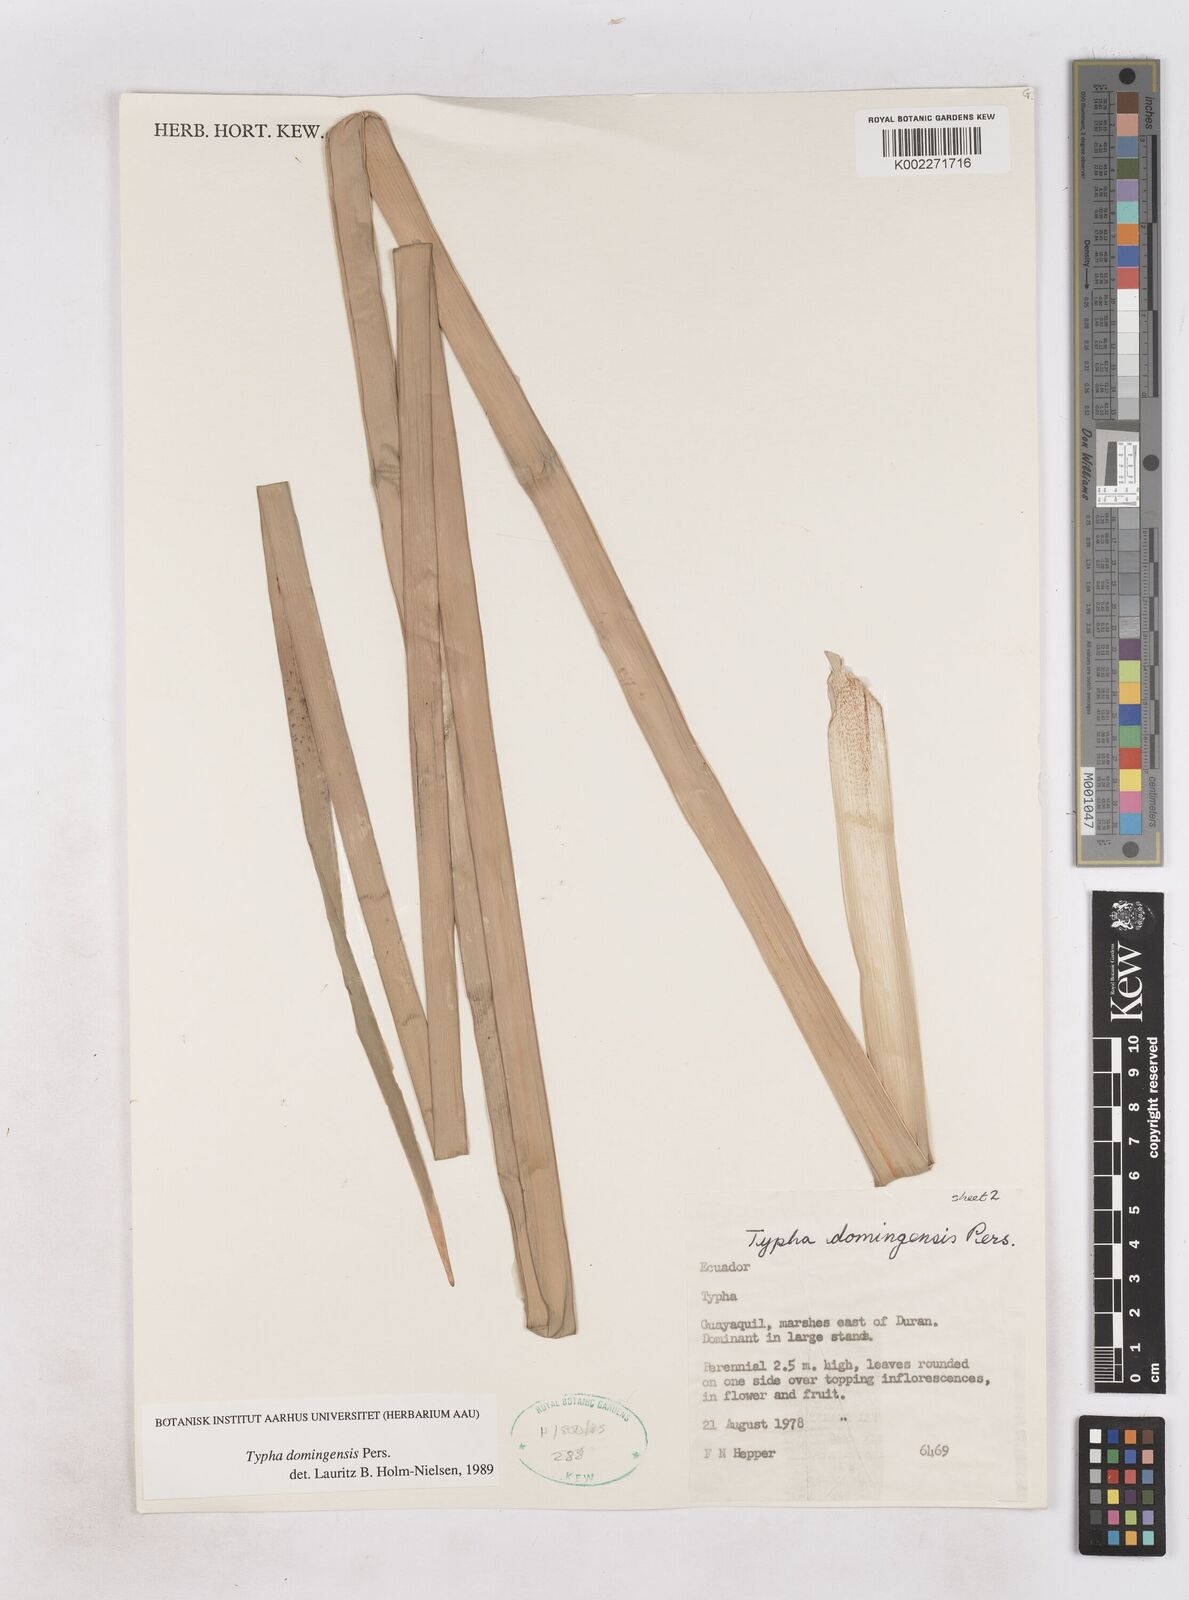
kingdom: Plantae
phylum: Tracheophyta
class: Liliopsida
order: Poales
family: Typhaceae
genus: Typha
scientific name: Typha domingensis
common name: Southern cattail
